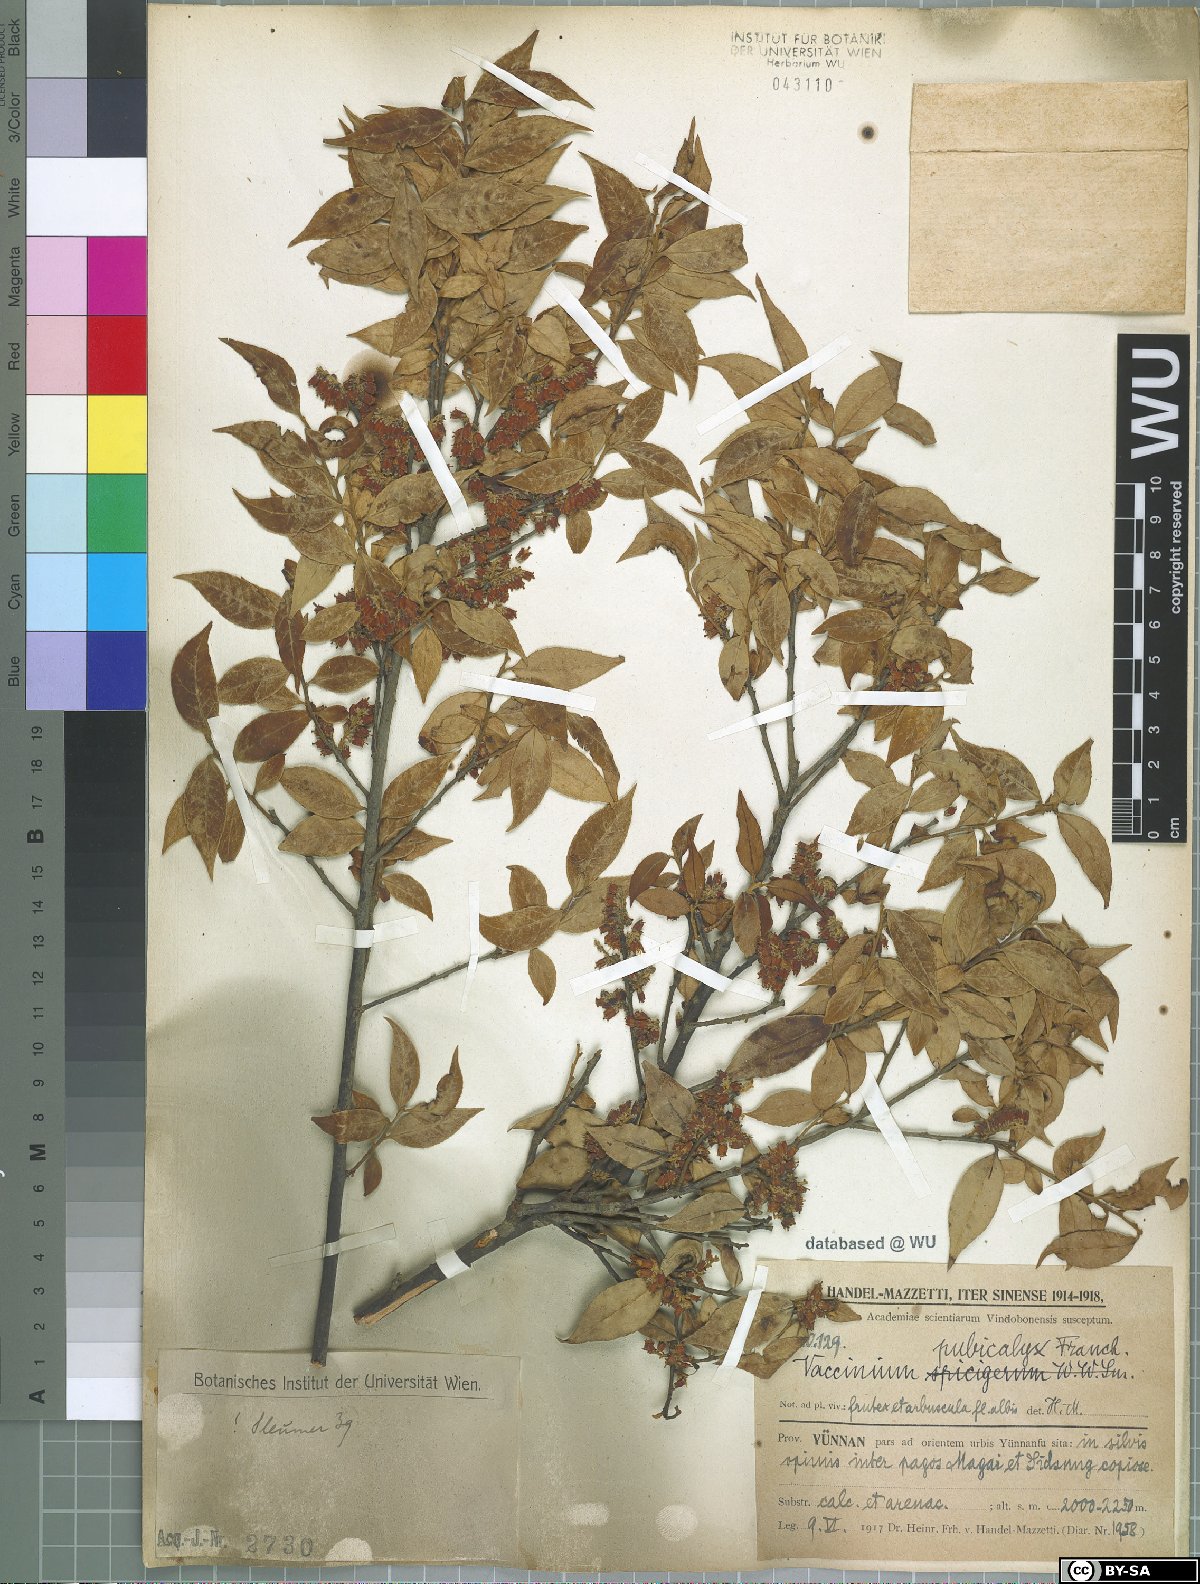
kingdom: Plantae
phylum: Tracheophyta
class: Magnoliopsida
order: Ericales
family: Ericaceae
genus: Vaccinium
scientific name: Vaccinium pubicalyx
